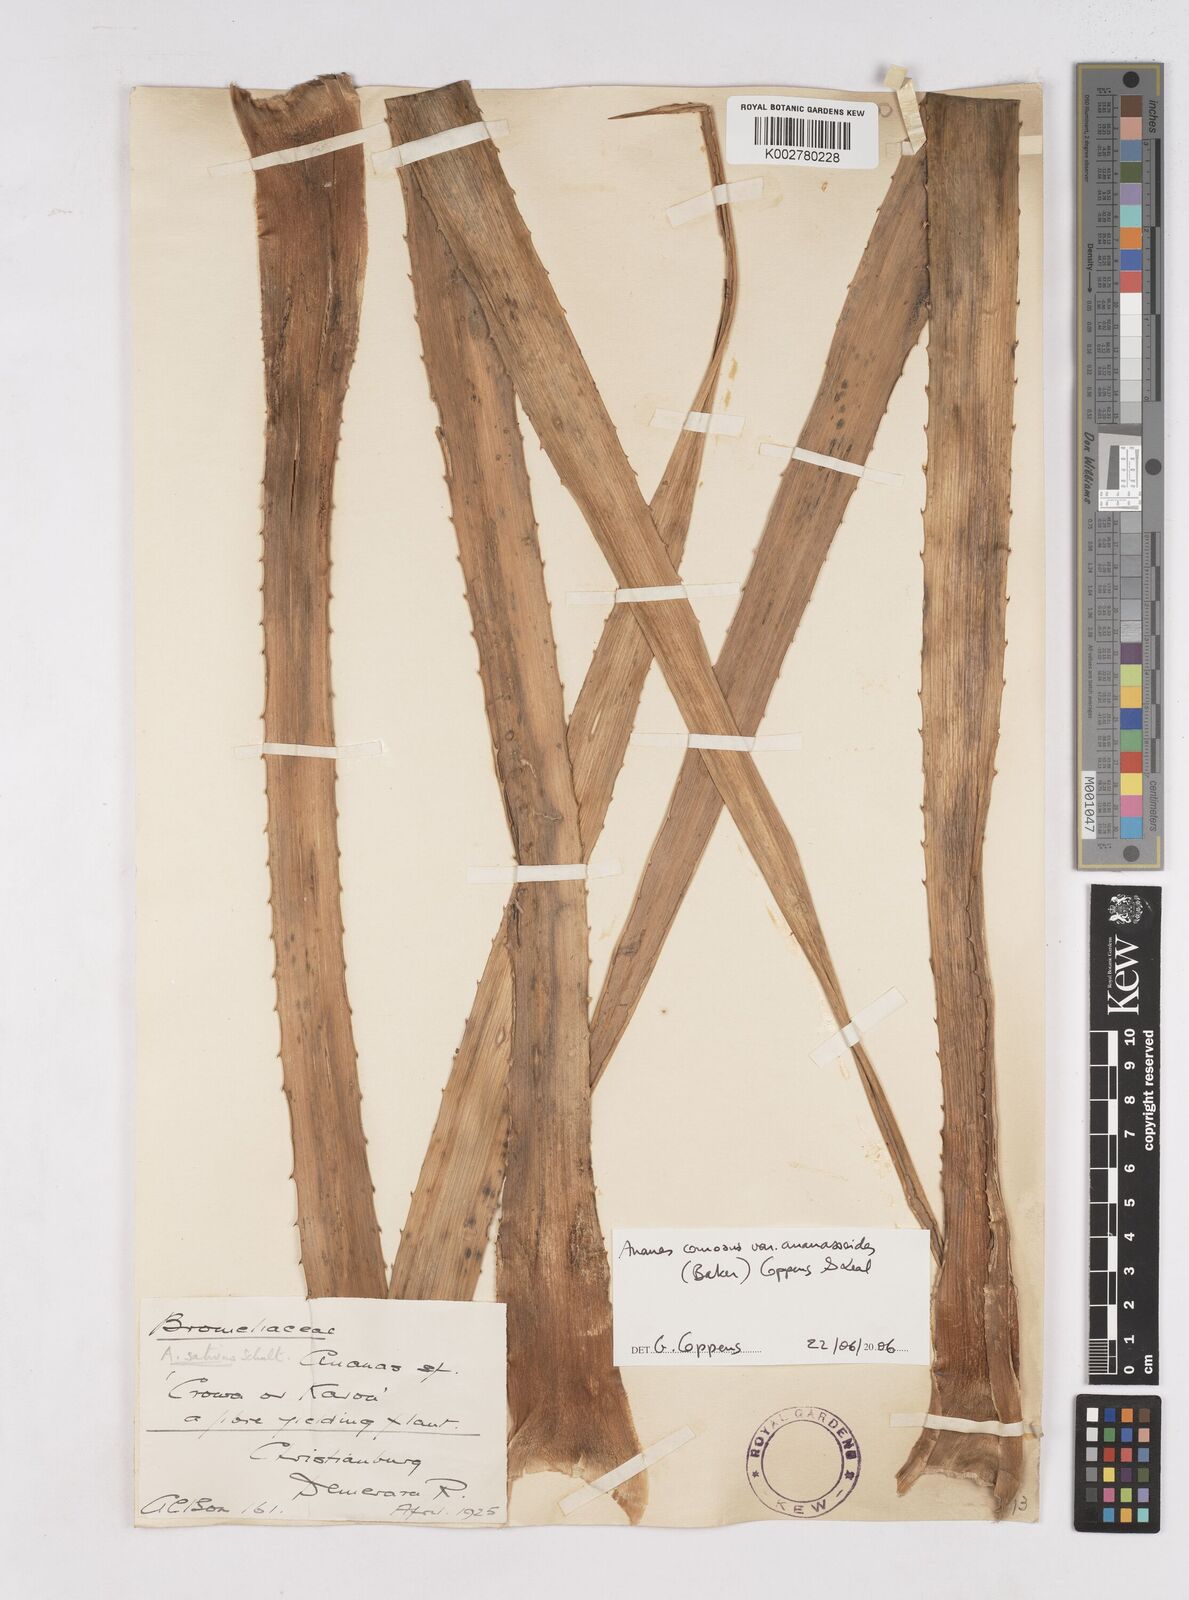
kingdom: Plantae
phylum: Tracheophyta
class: Liliopsida
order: Poales
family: Bromeliaceae
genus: Ananas
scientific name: Ananas comosus
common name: Pineapple
